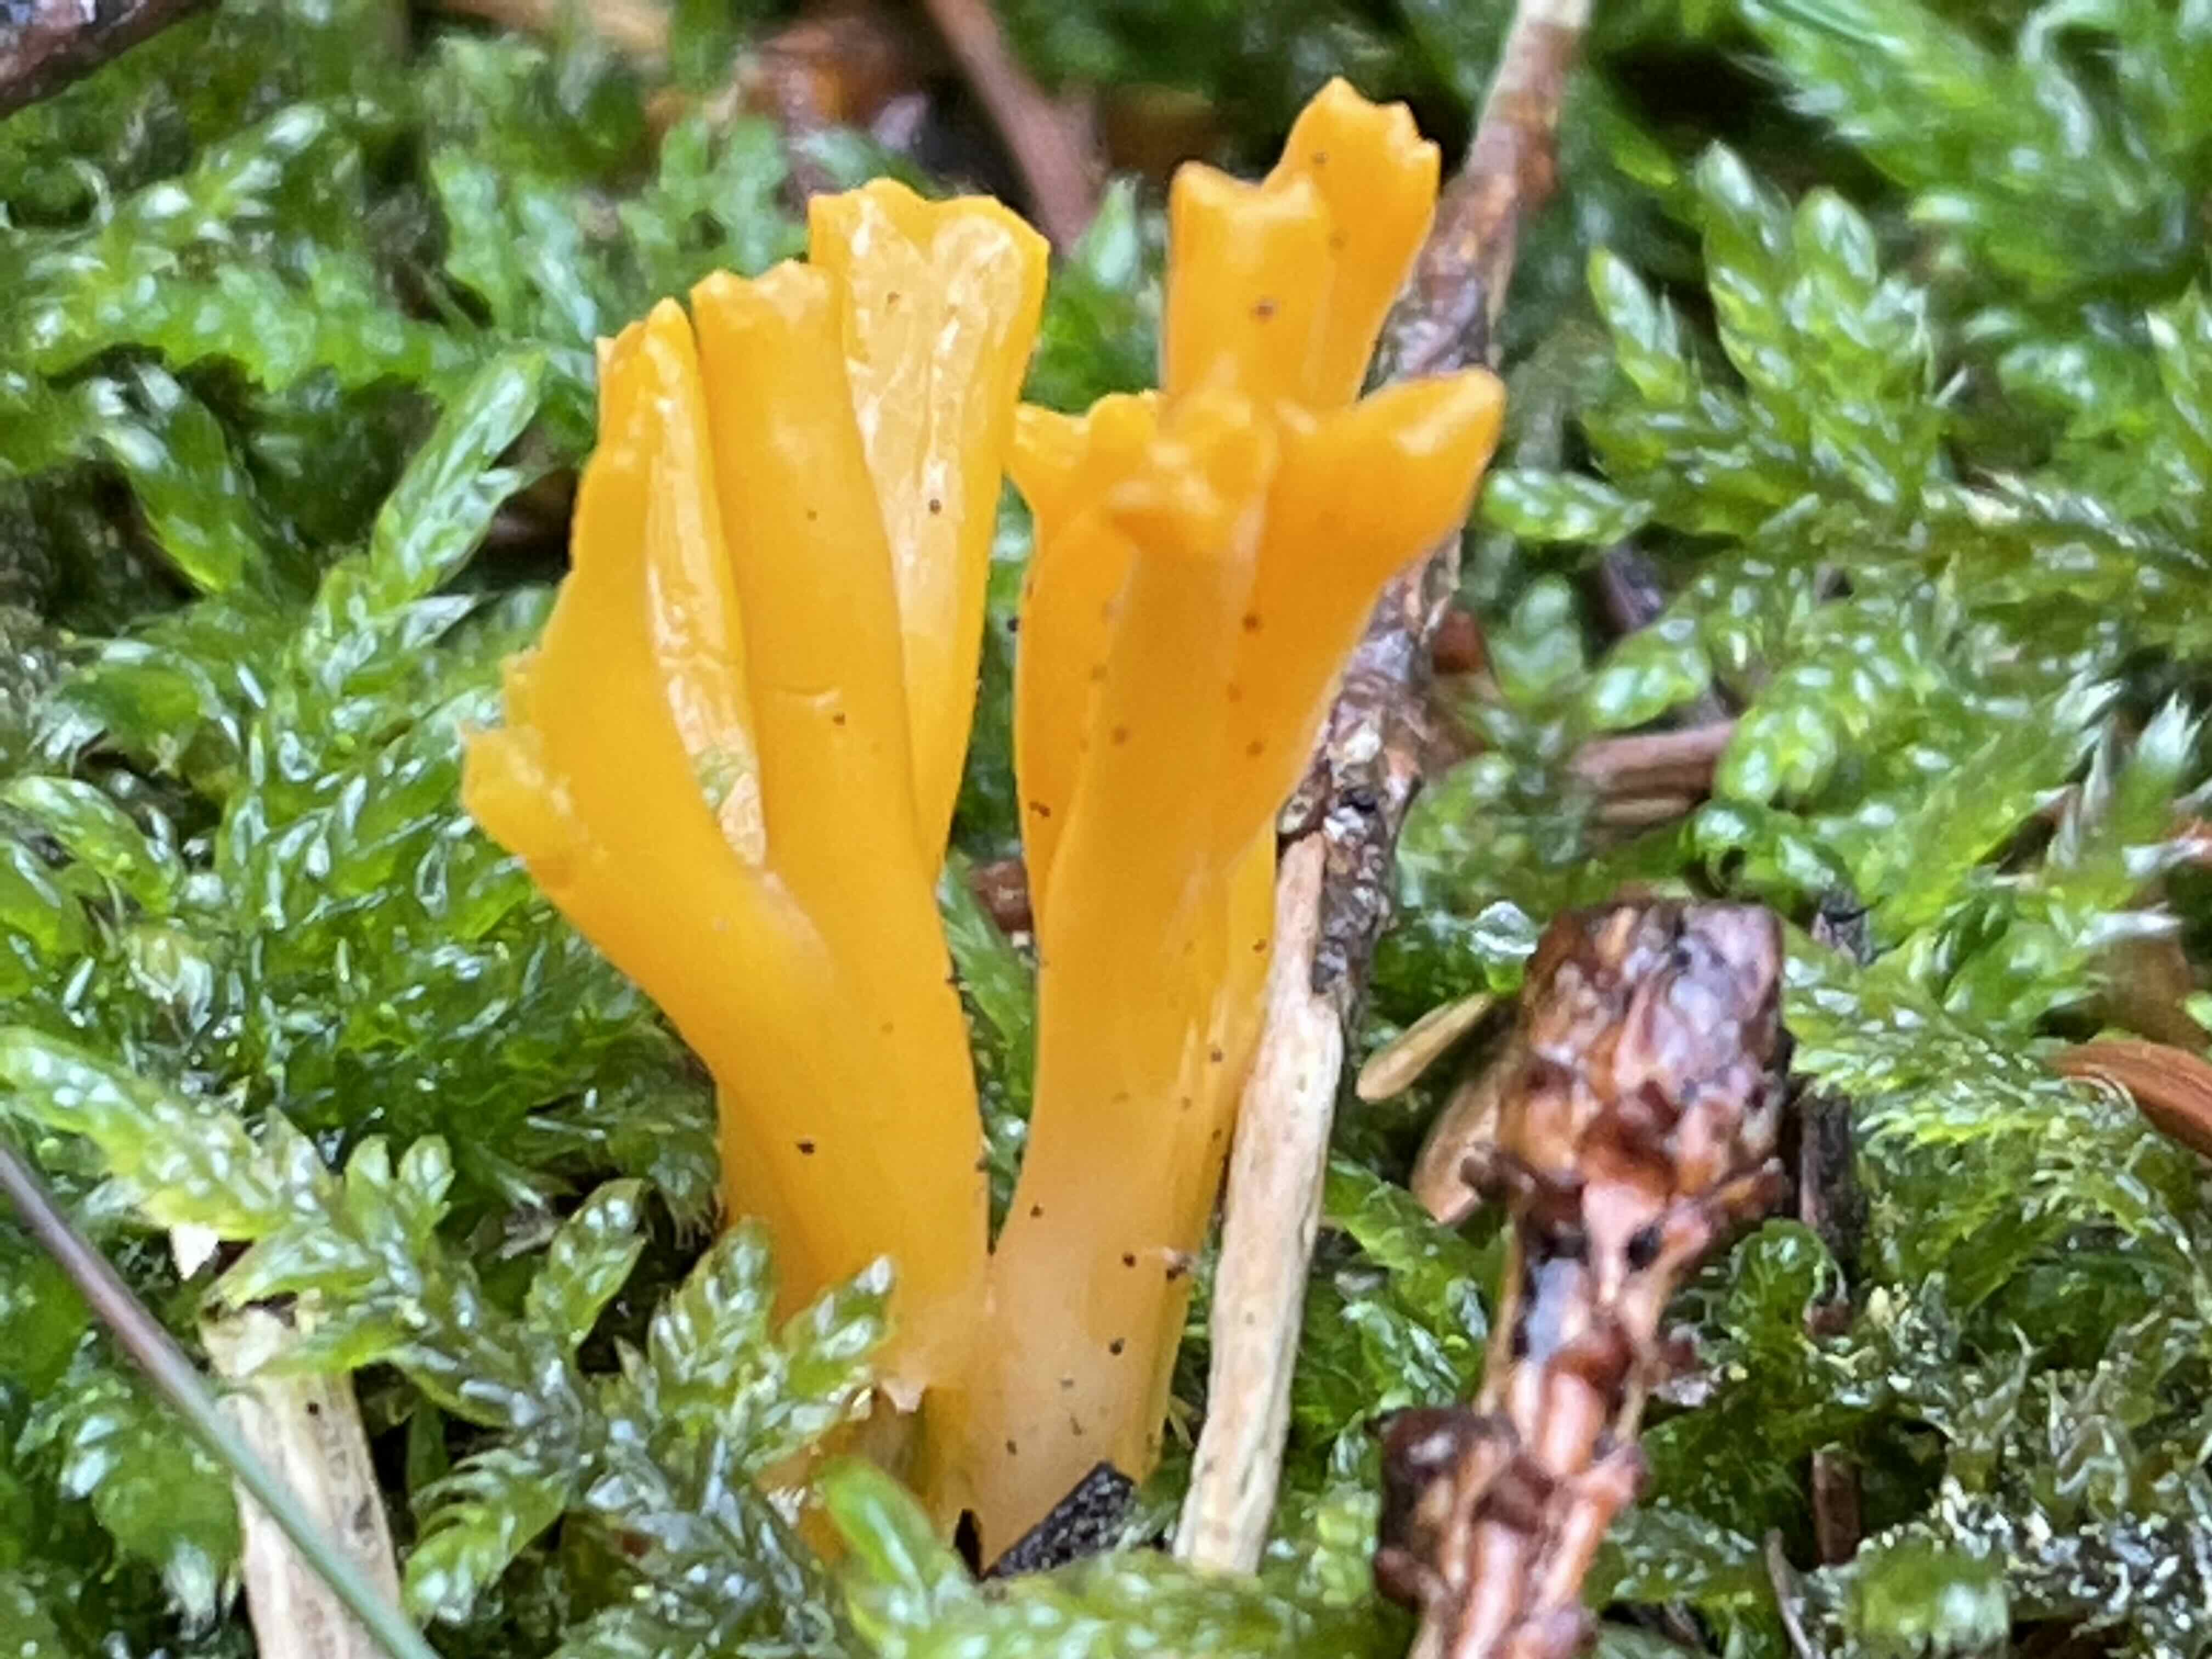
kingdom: Fungi
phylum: Basidiomycota
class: Dacrymycetes
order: Dacrymycetales
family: Dacrymycetaceae
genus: Calocera
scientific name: Calocera viscosa
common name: almindelig guldgaffel
